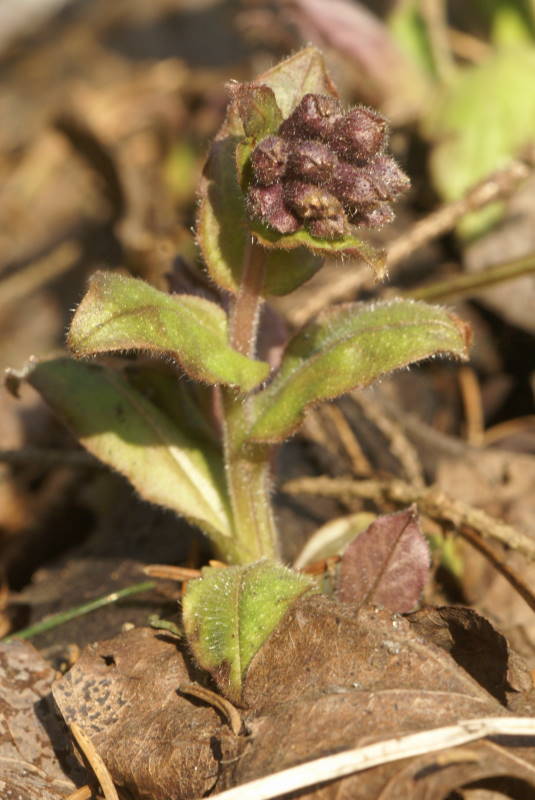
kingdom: Plantae
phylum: Tracheophyta
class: Magnoliopsida
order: Boraginales
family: Boraginaceae
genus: Pulmonaria
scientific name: Pulmonaria obscura
